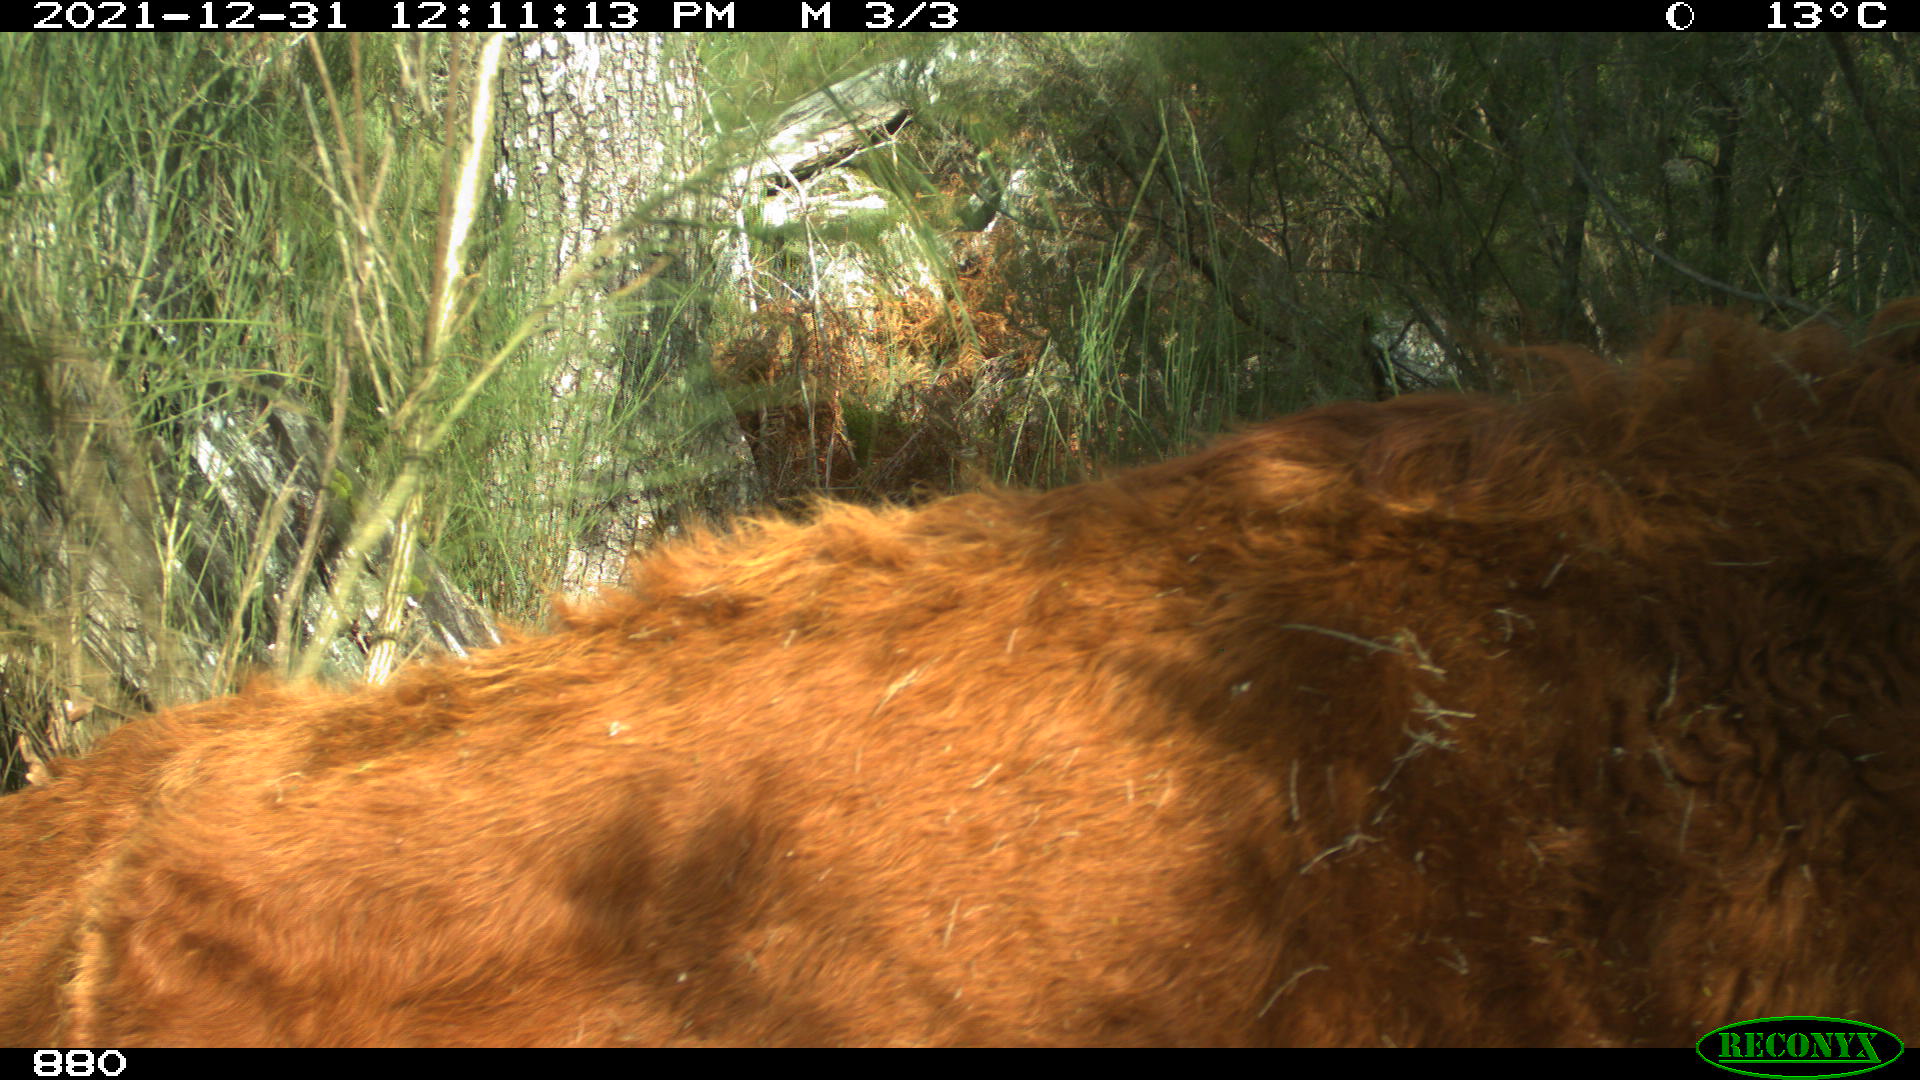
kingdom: Animalia
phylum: Chordata
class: Mammalia
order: Artiodactyla
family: Bovidae
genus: Bos
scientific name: Bos taurus
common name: Domesticated cattle
